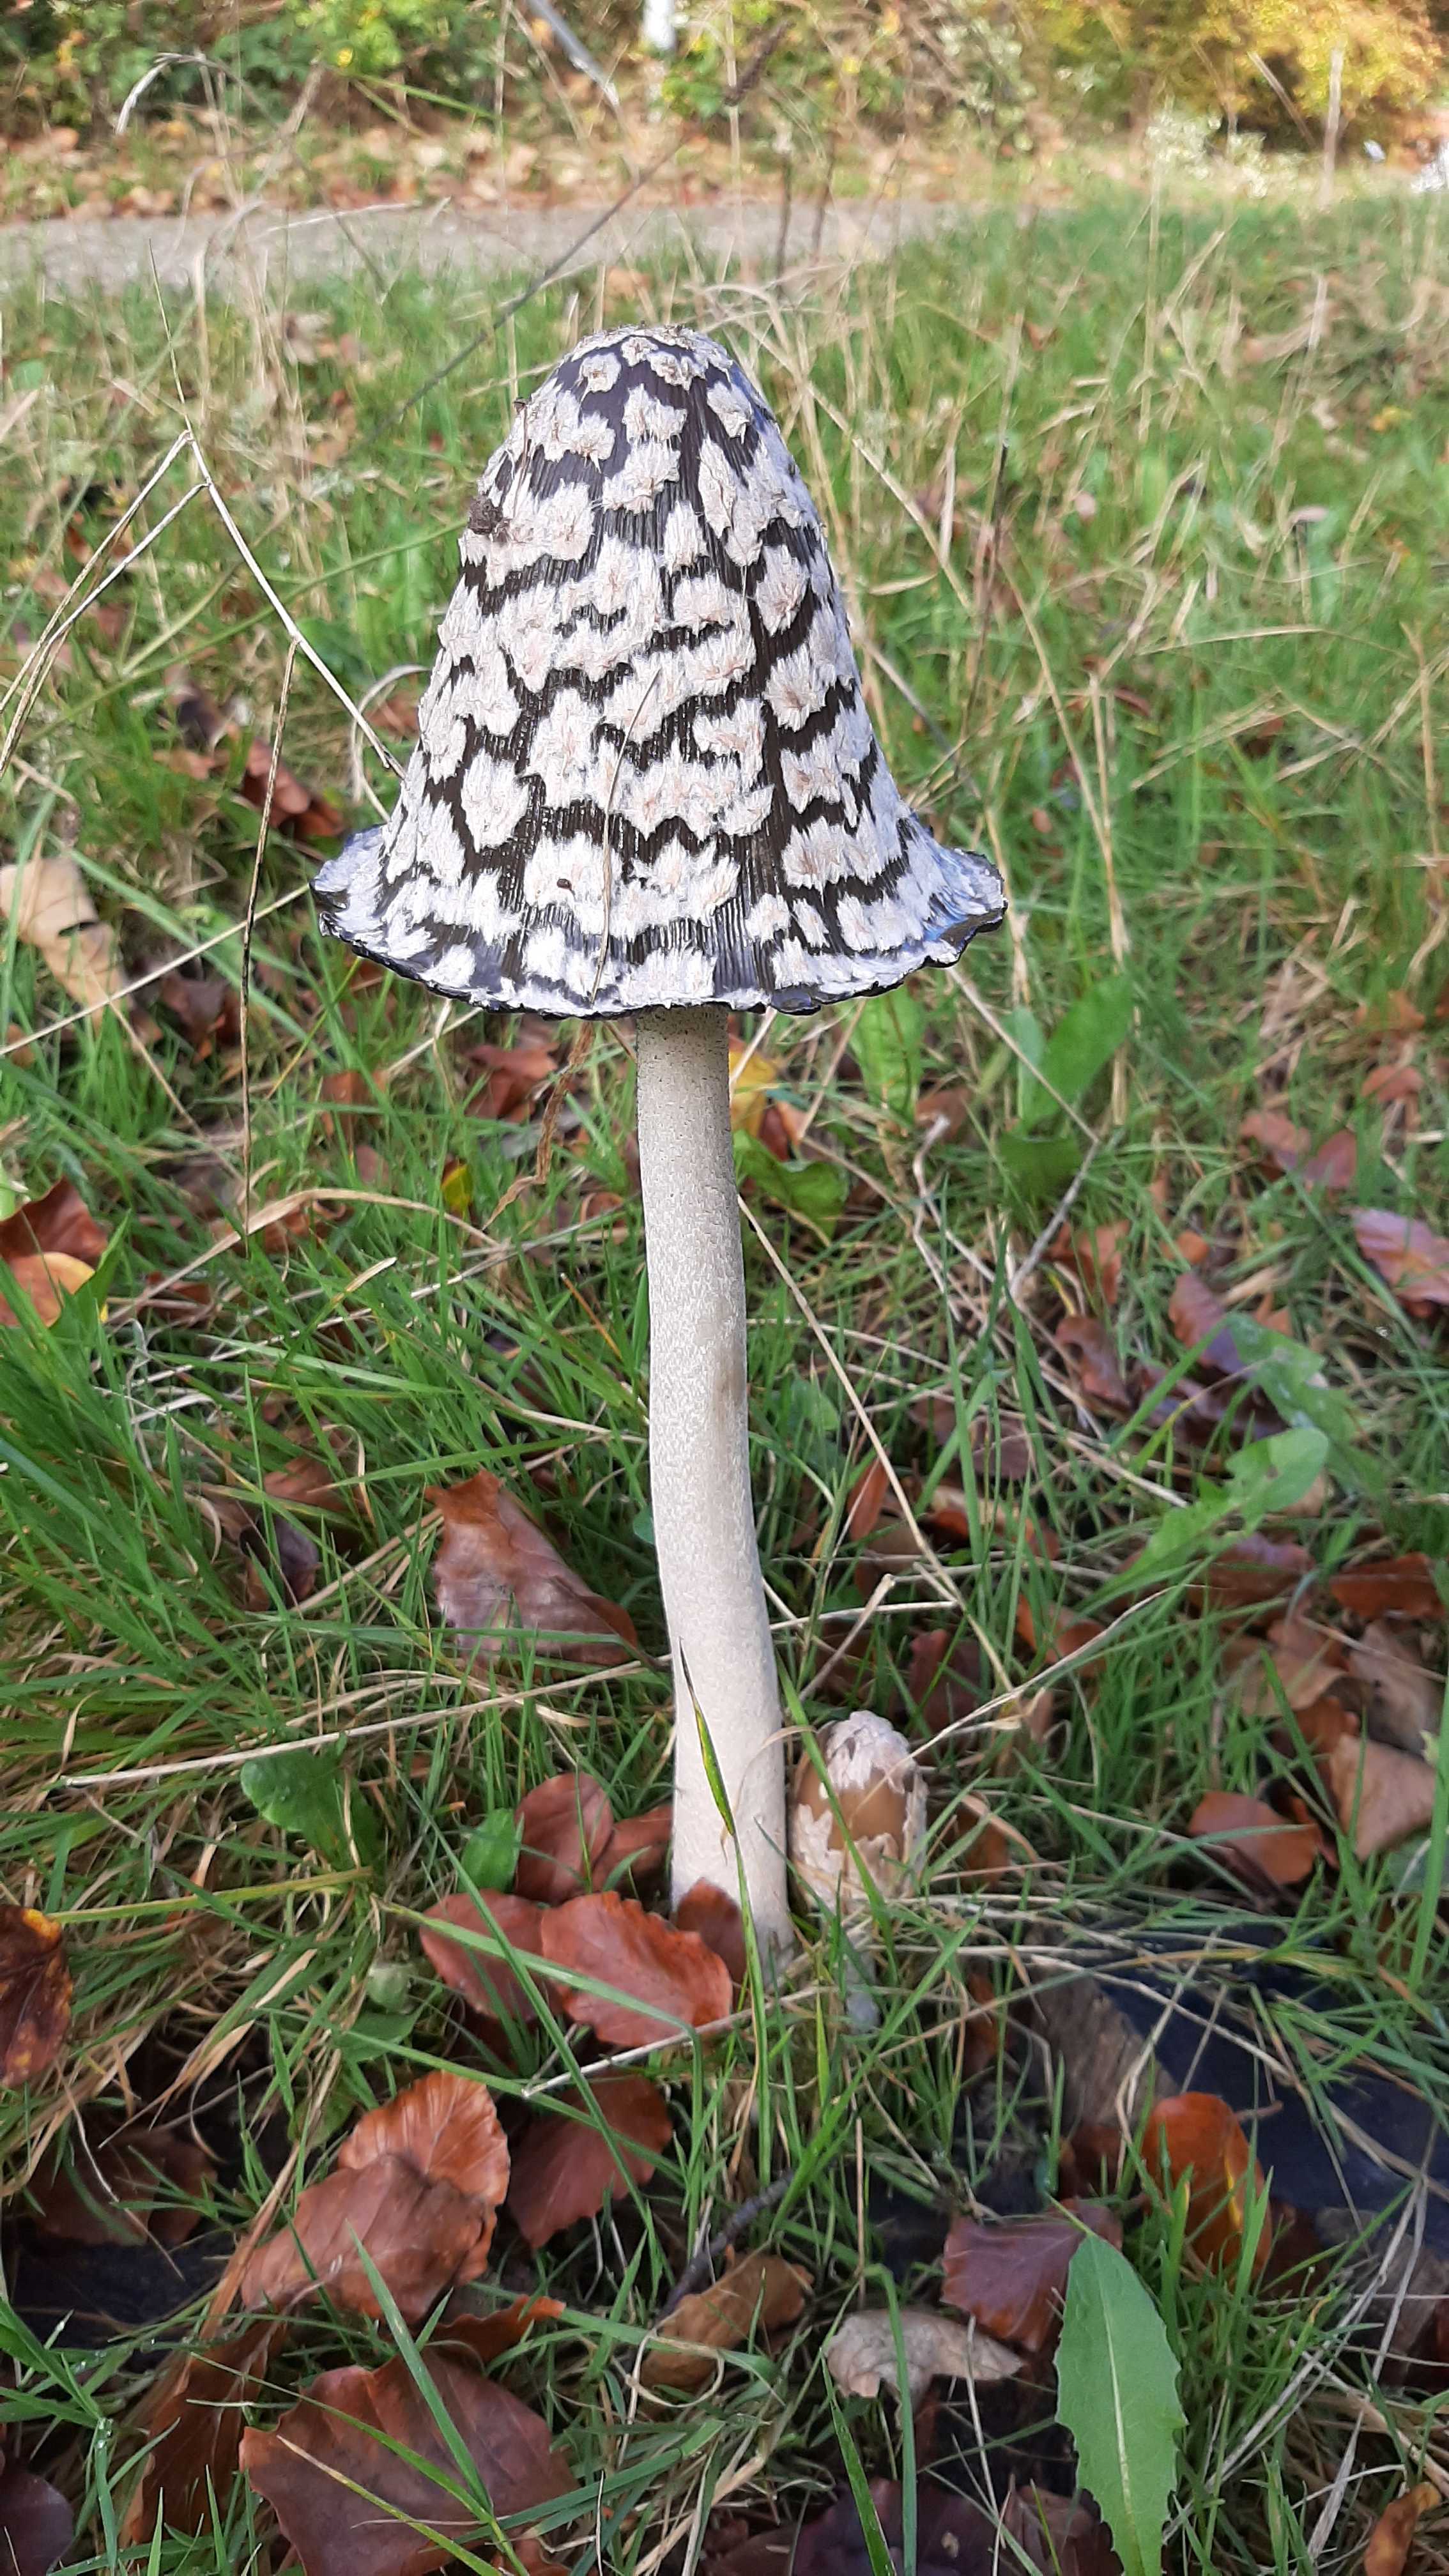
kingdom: Fungi
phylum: Basidiomycota
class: Agaricomycetes
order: Agaricales
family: Psathyrellaceae
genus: Coprinopsis
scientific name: Coprinopsis picacea
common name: skade-blækhat
